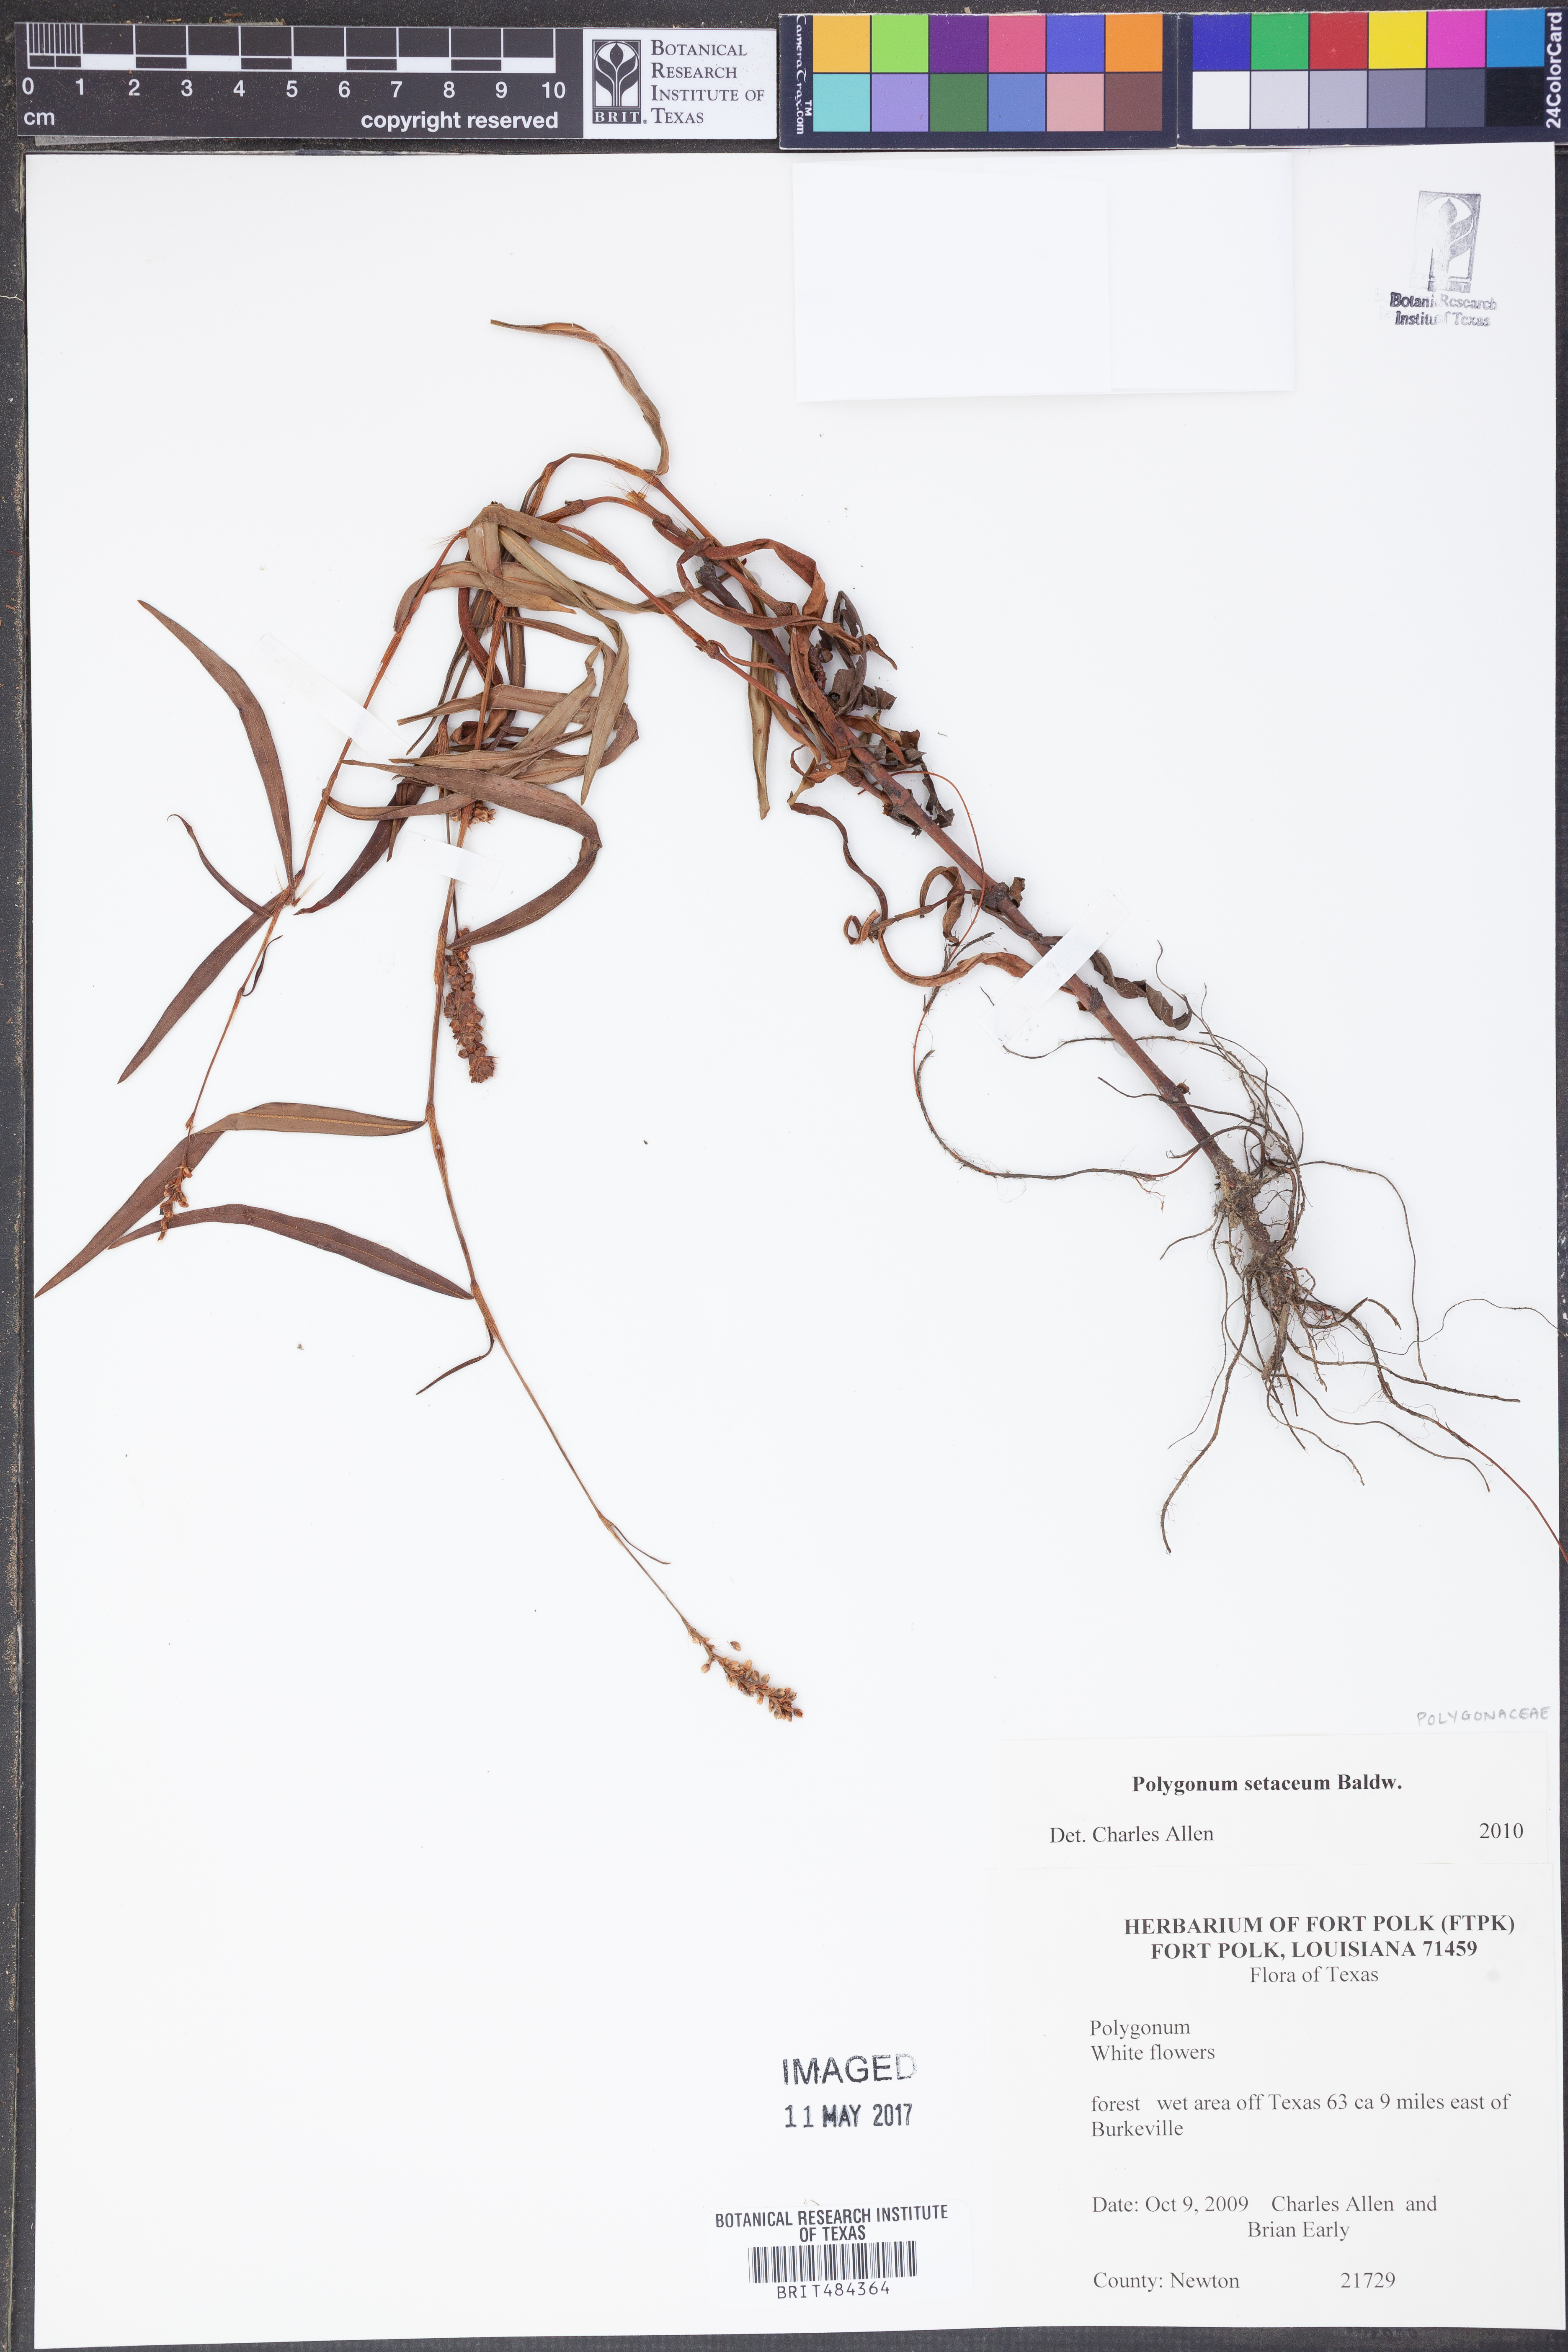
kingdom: Plantae
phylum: Tracheophyta
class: Magnoliopsida
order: Caryophyllales
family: Polygonaceae
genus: Persicaria
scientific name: Persicaria setacea
